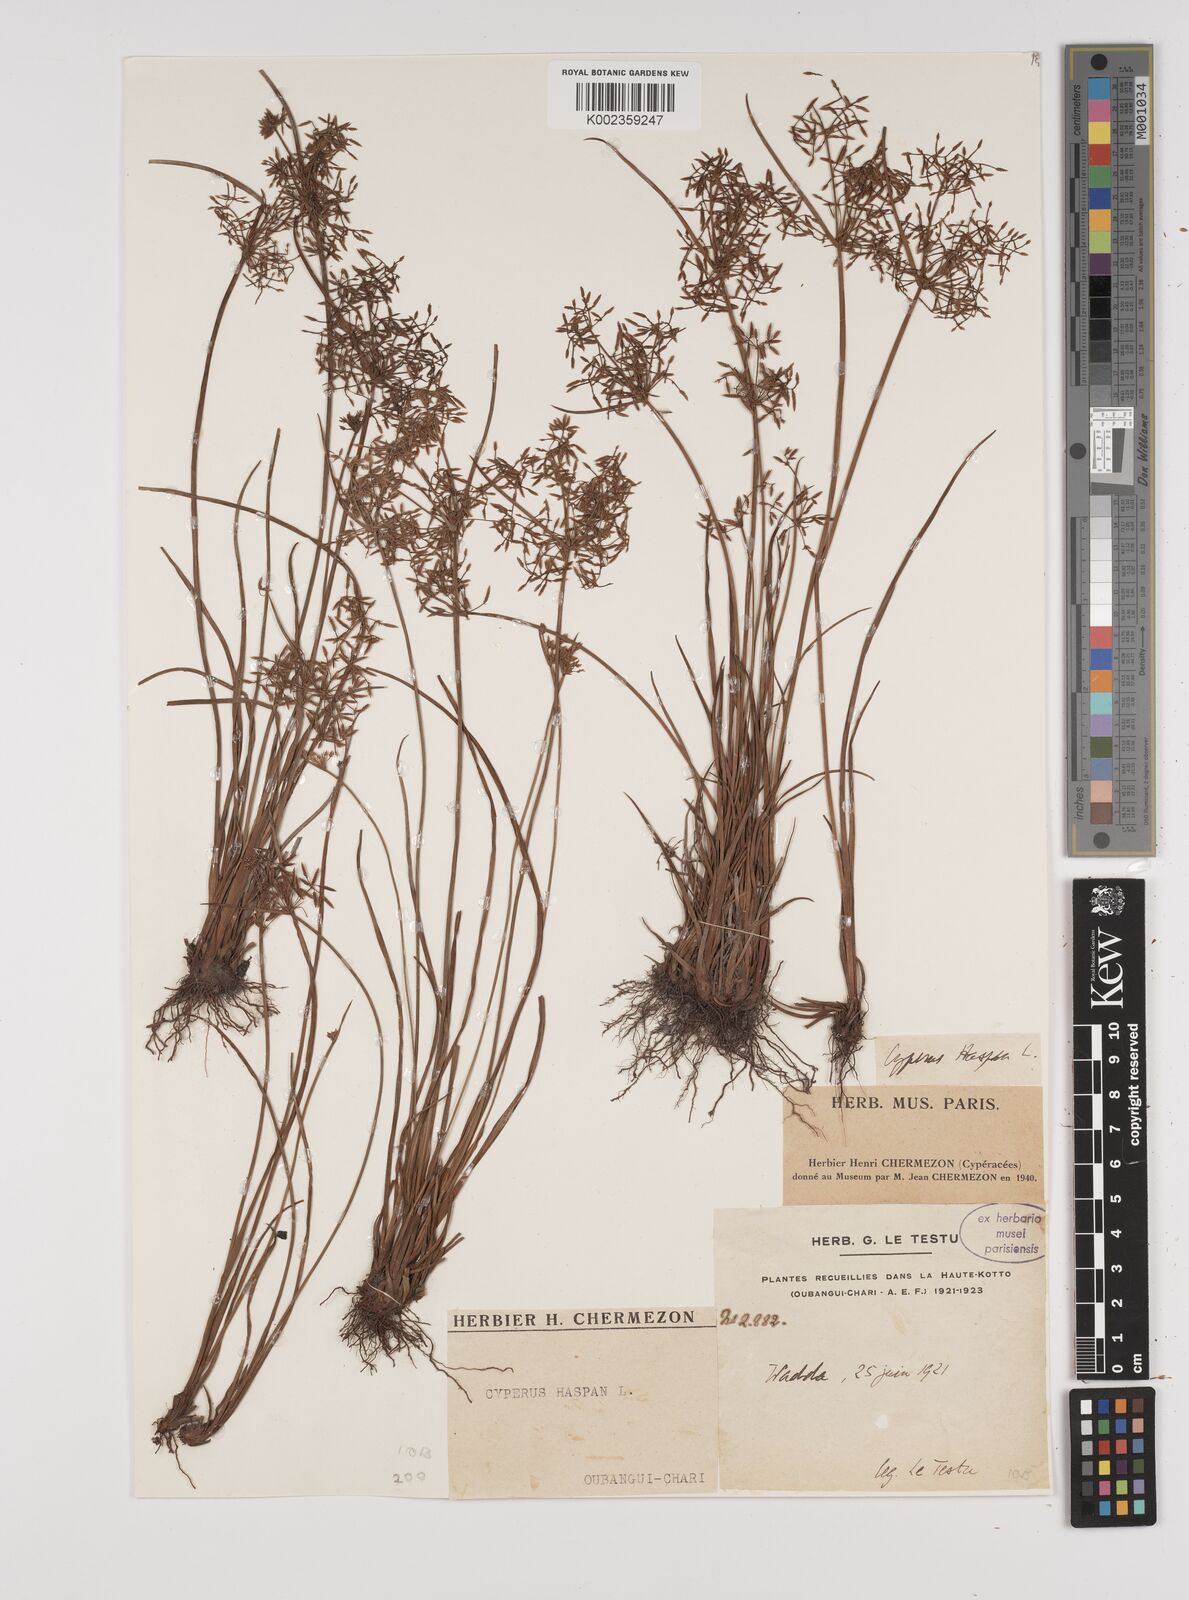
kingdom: Plantae
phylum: Tracheophyta
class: Liliopsida
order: Poales
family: Cyperaceae
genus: Cyperus
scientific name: Cyperus haspan
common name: Haspan flatsedge
